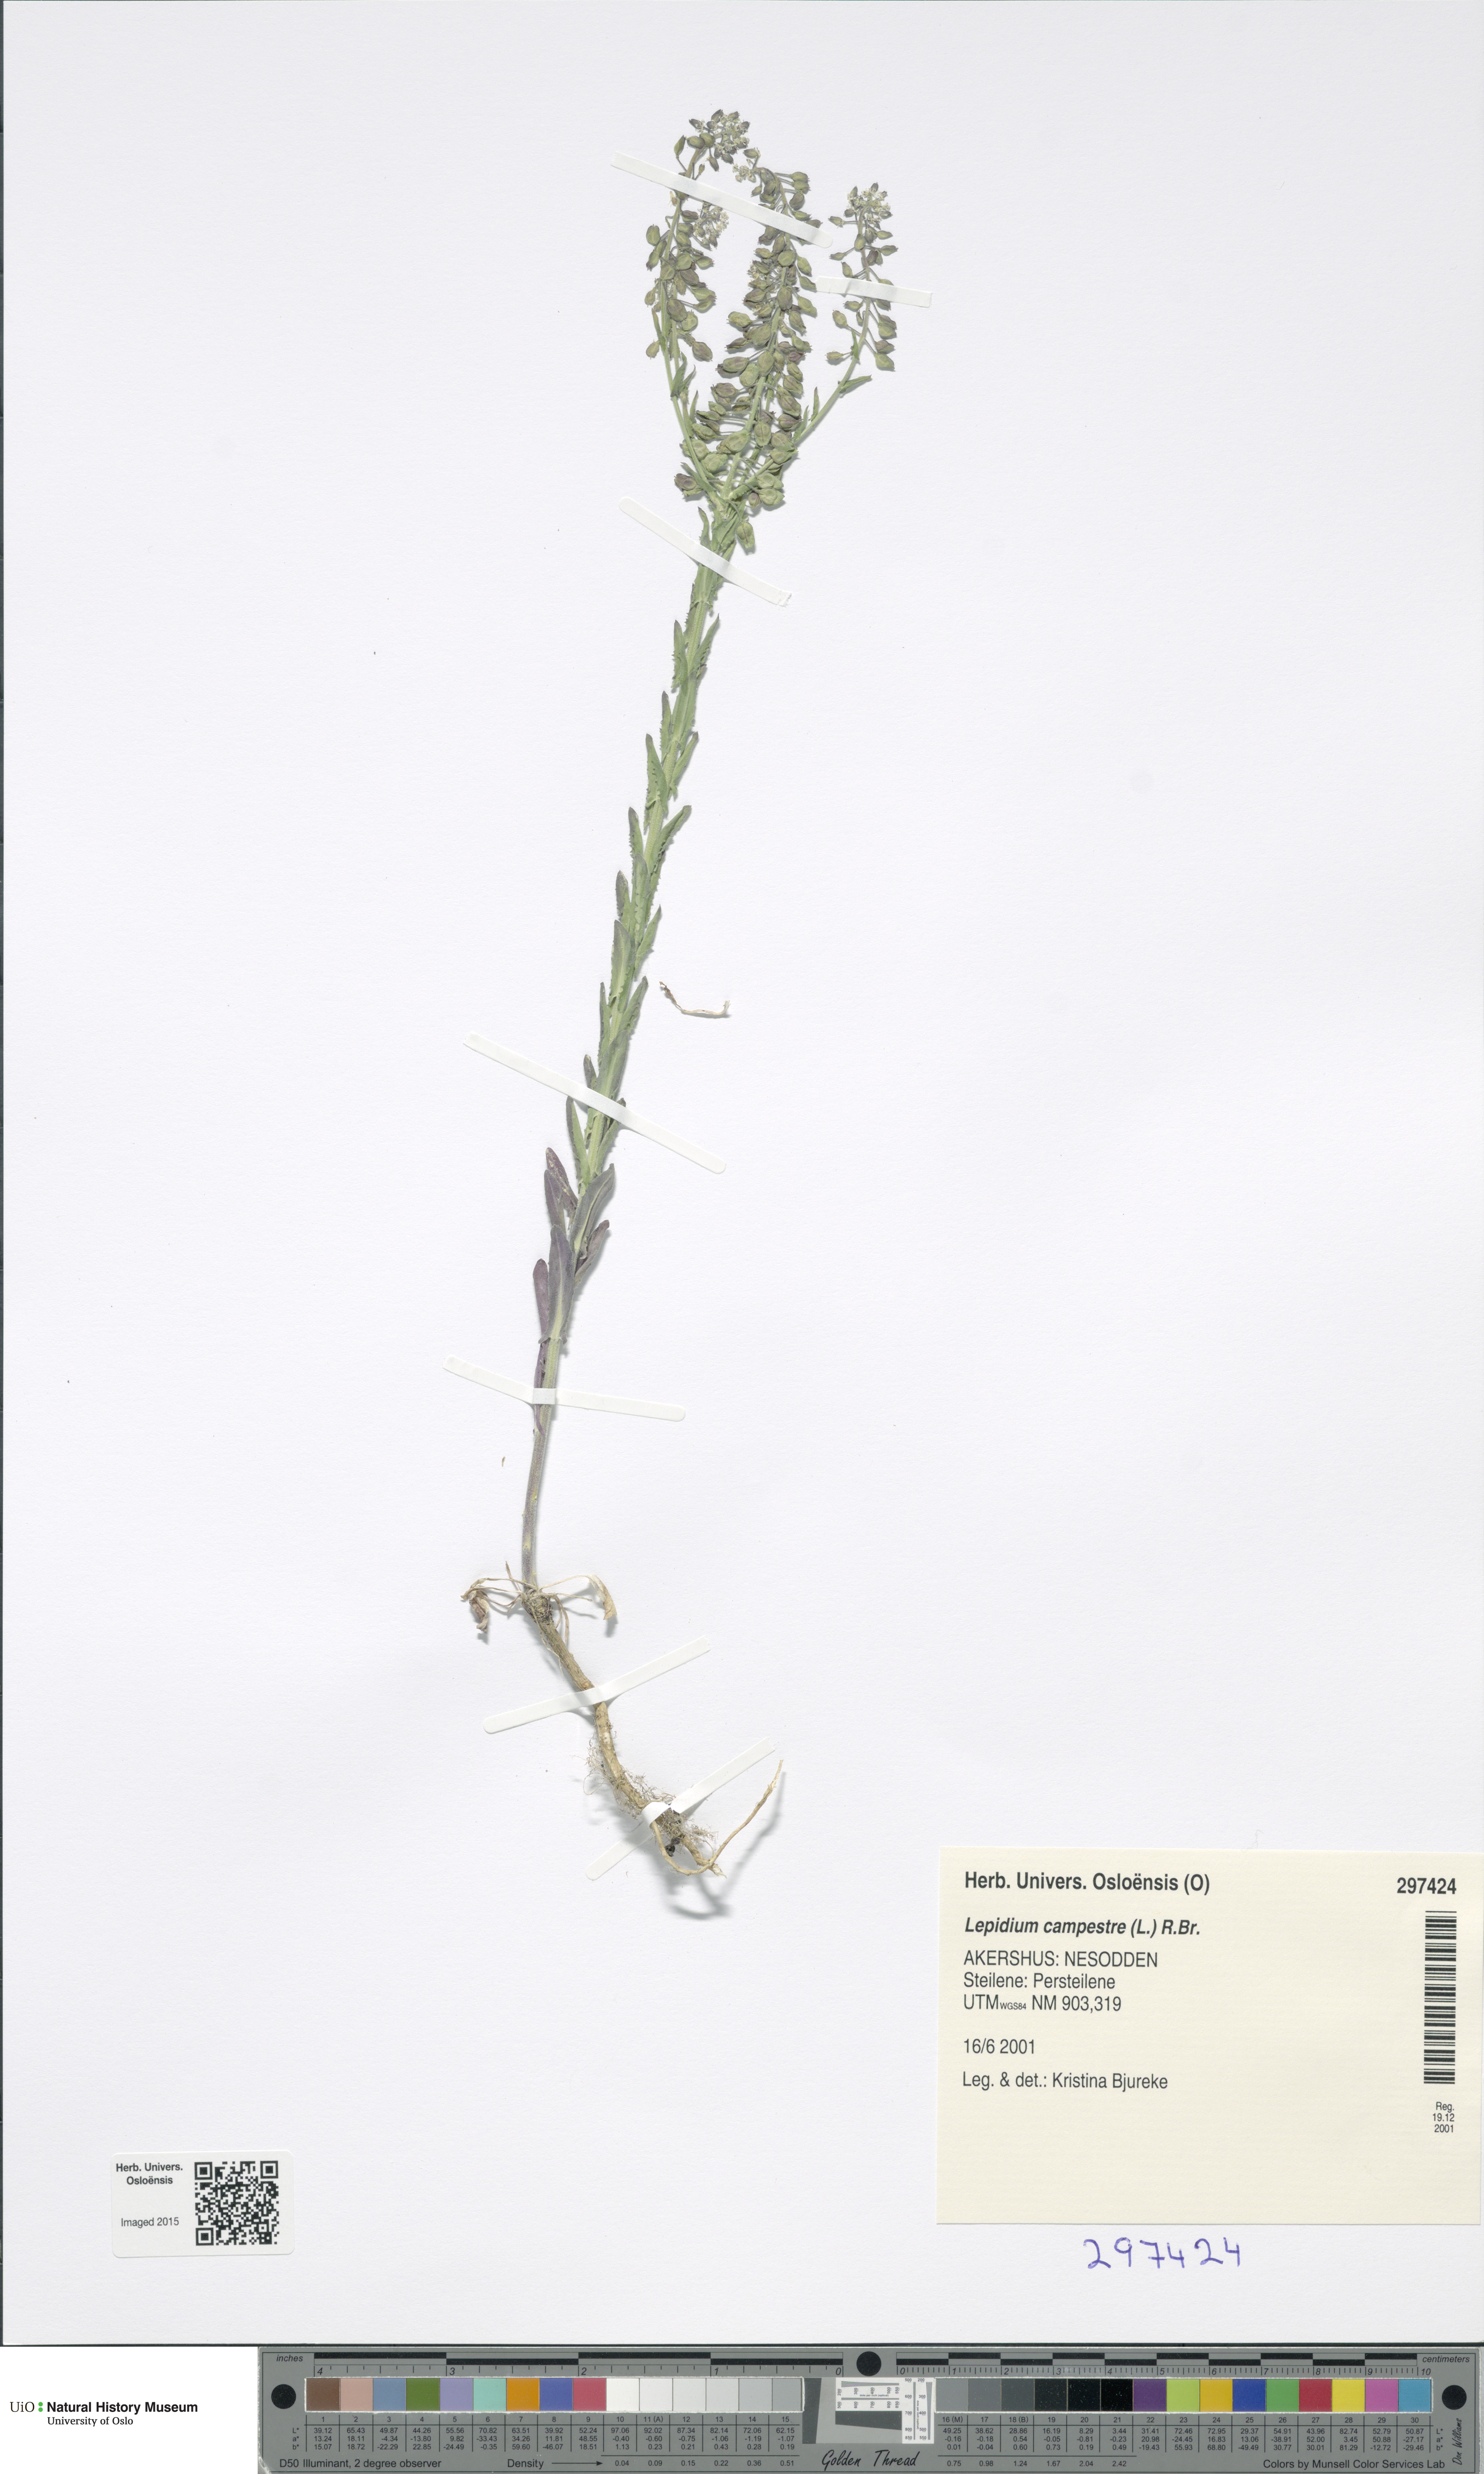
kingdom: Plantae
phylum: Tracheophyta
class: Magnoliopsida
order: Brassicales
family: Brassicaceae
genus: Lepidium
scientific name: Lepidium campestre
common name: Field pepperwort
